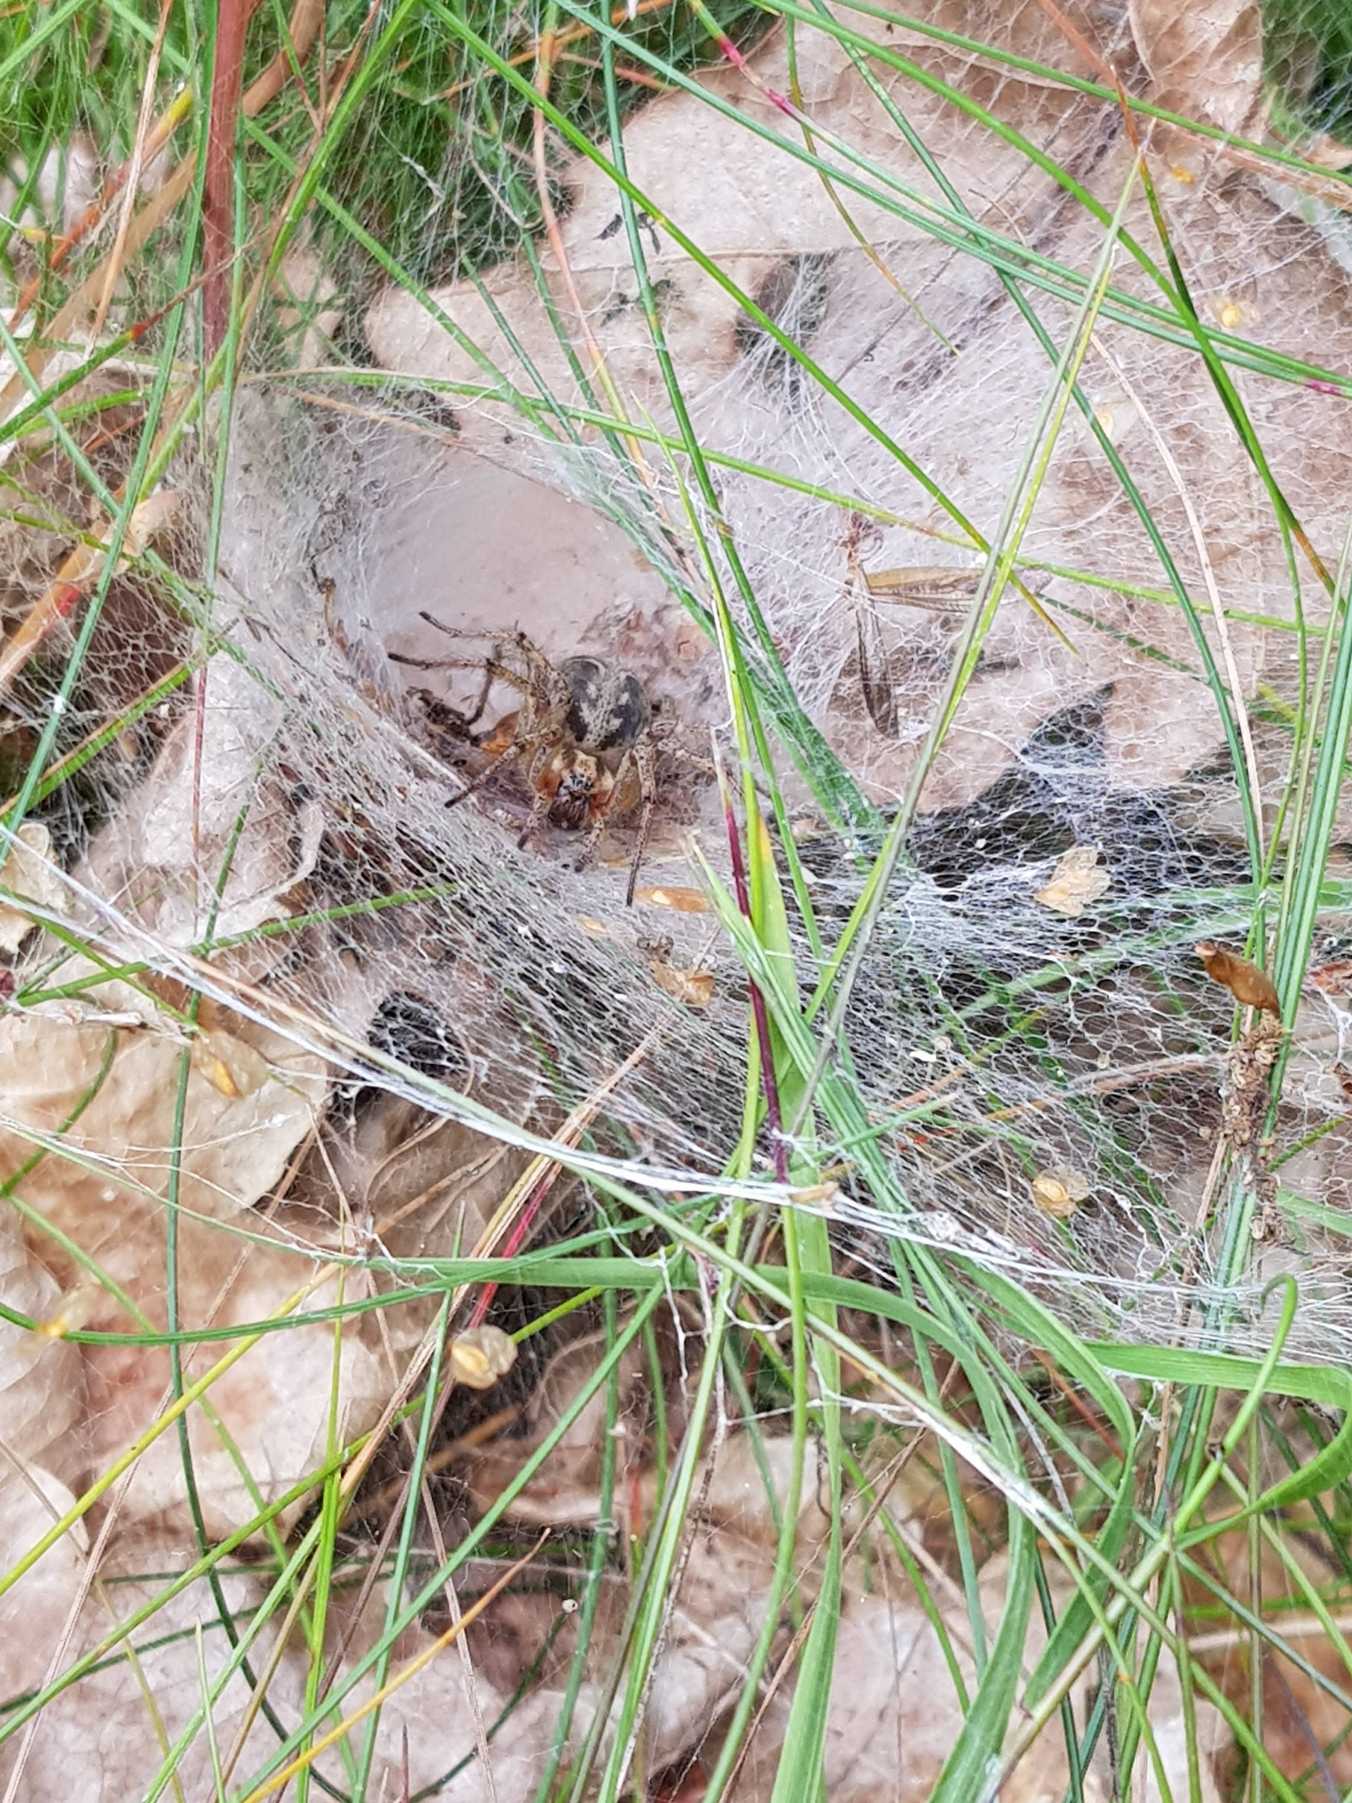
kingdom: Animalia
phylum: Arthropoda
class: Arachnida
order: Araneae
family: Agelenidae
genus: Agelena
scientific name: Agelena labyrinthica
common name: Labyrintedderkop
